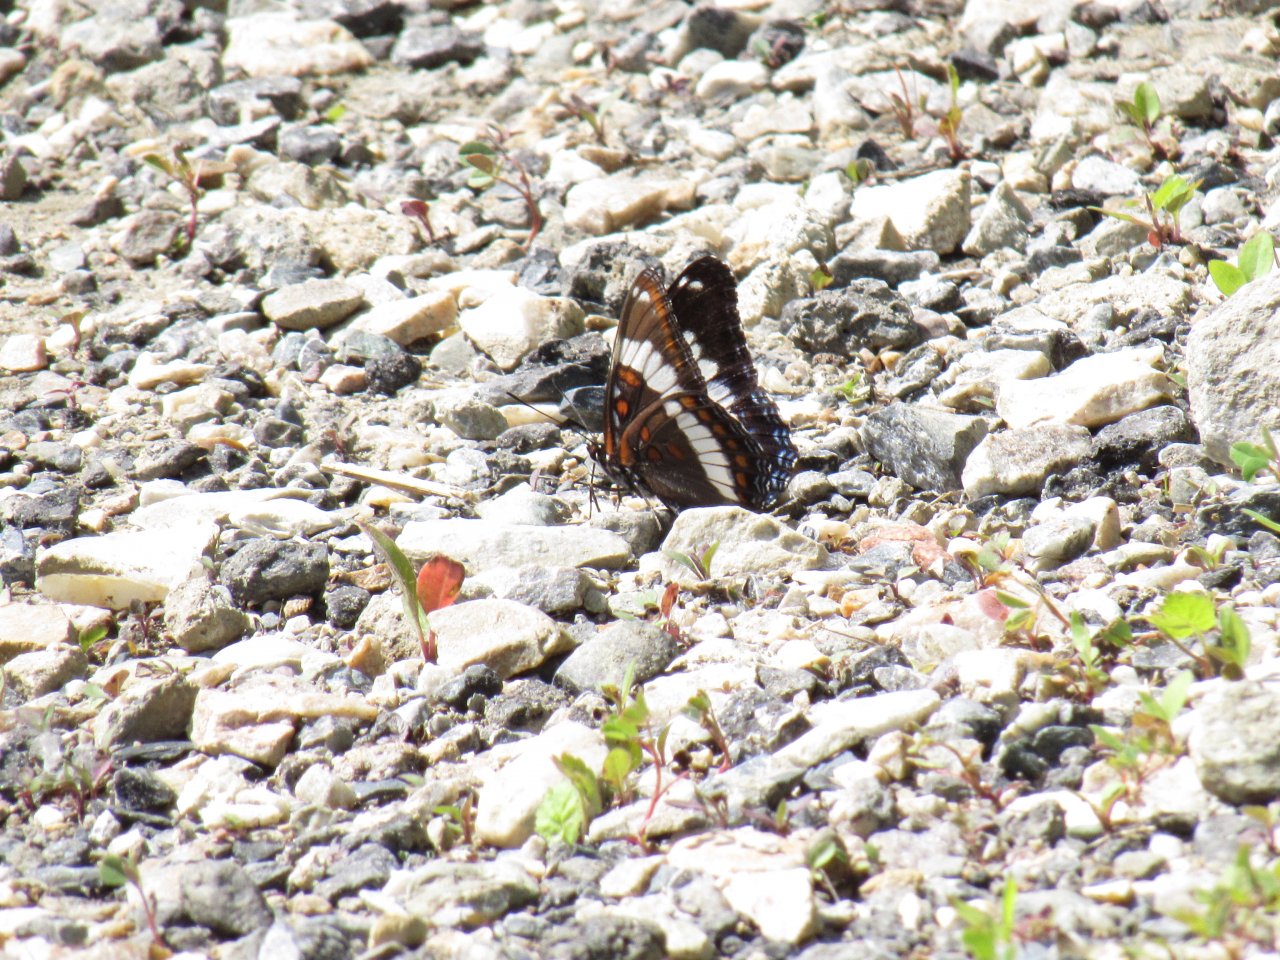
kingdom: Animalia
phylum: Arthropoda
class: Insecta
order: Lepidoptera
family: Nymphalidae
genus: Limenitis
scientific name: Limenitis arthemis
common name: Red-spotted Admiral
